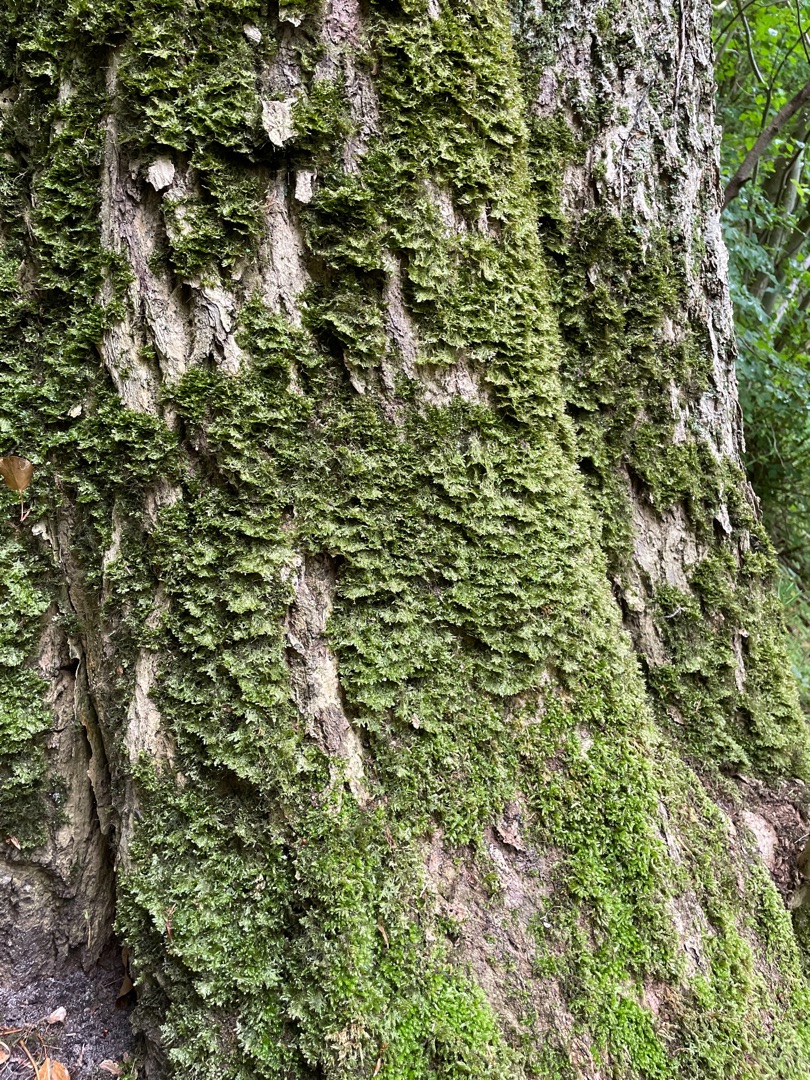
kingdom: Plantae
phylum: Bryophyta
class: Bryopsida
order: Hypnales
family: Neckeraceae
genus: Alleniella
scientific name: Alleniella complanata
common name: Almindelig fladmos
